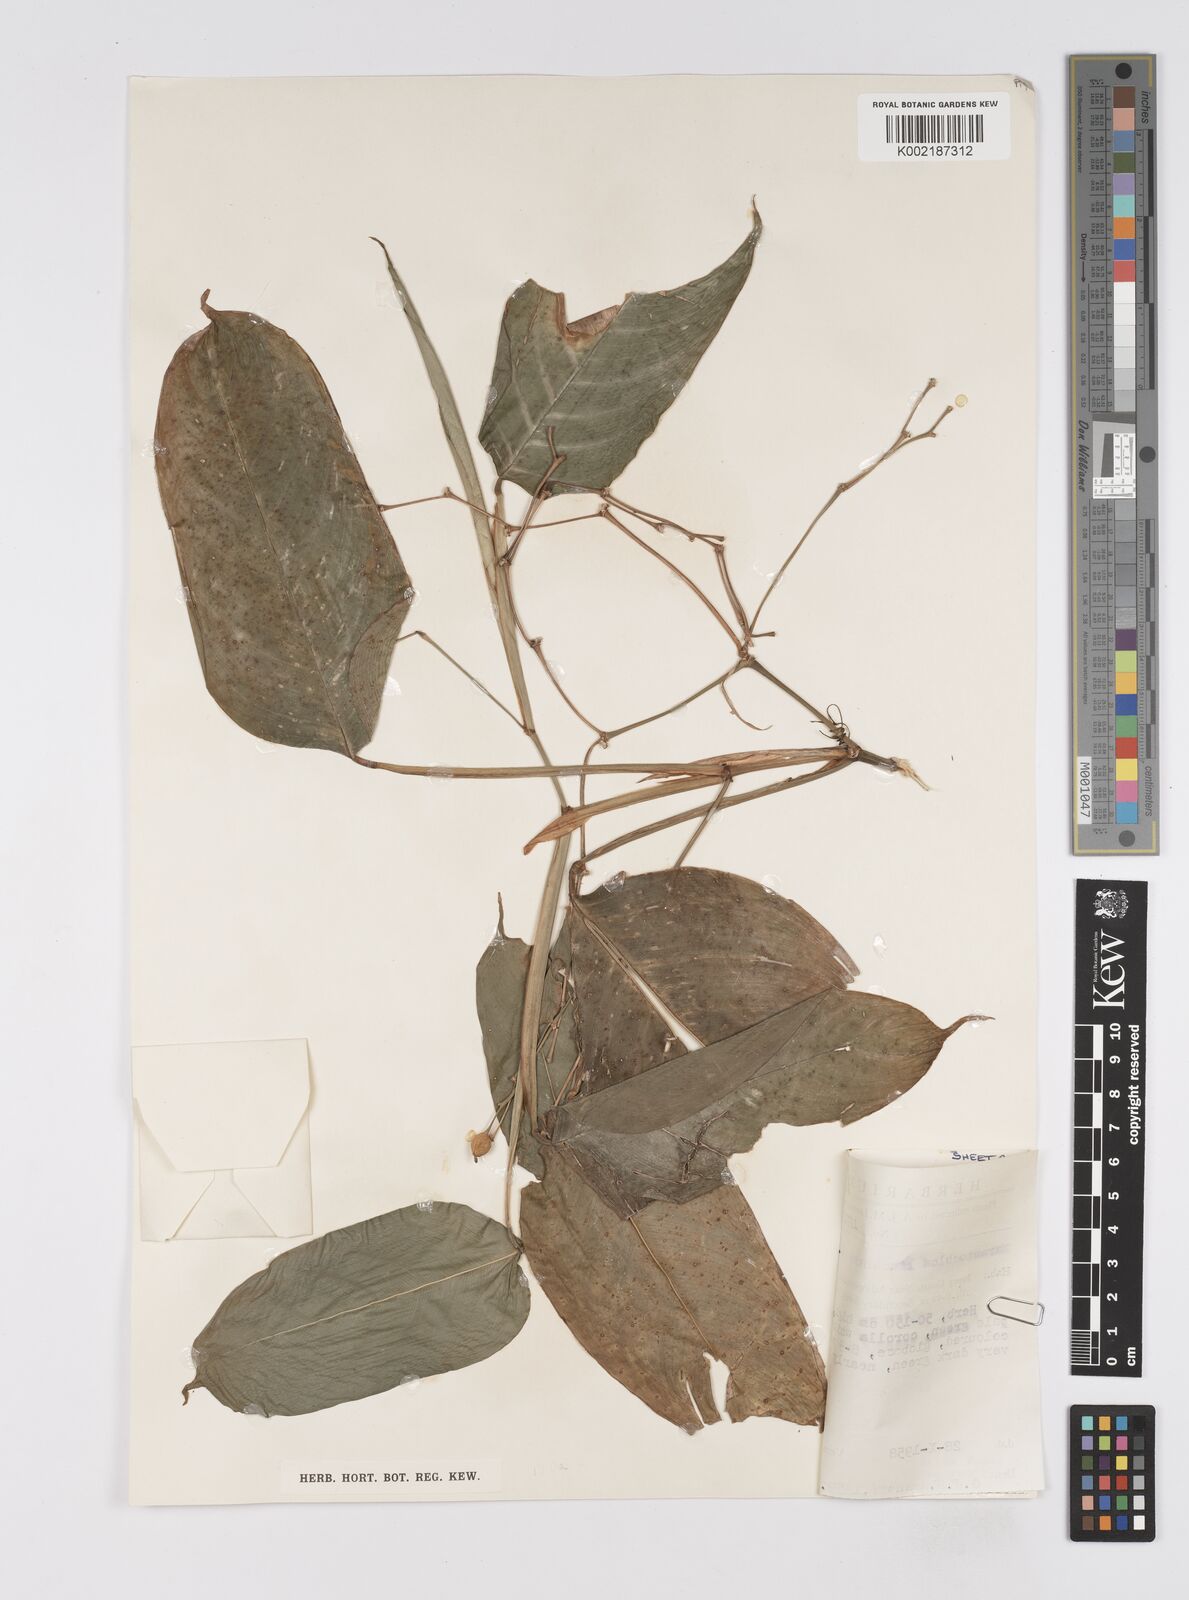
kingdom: Plantae
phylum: Tracheophyta
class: Liliopsida
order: Zingiberales
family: Marantaceae
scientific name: Marantaceae
